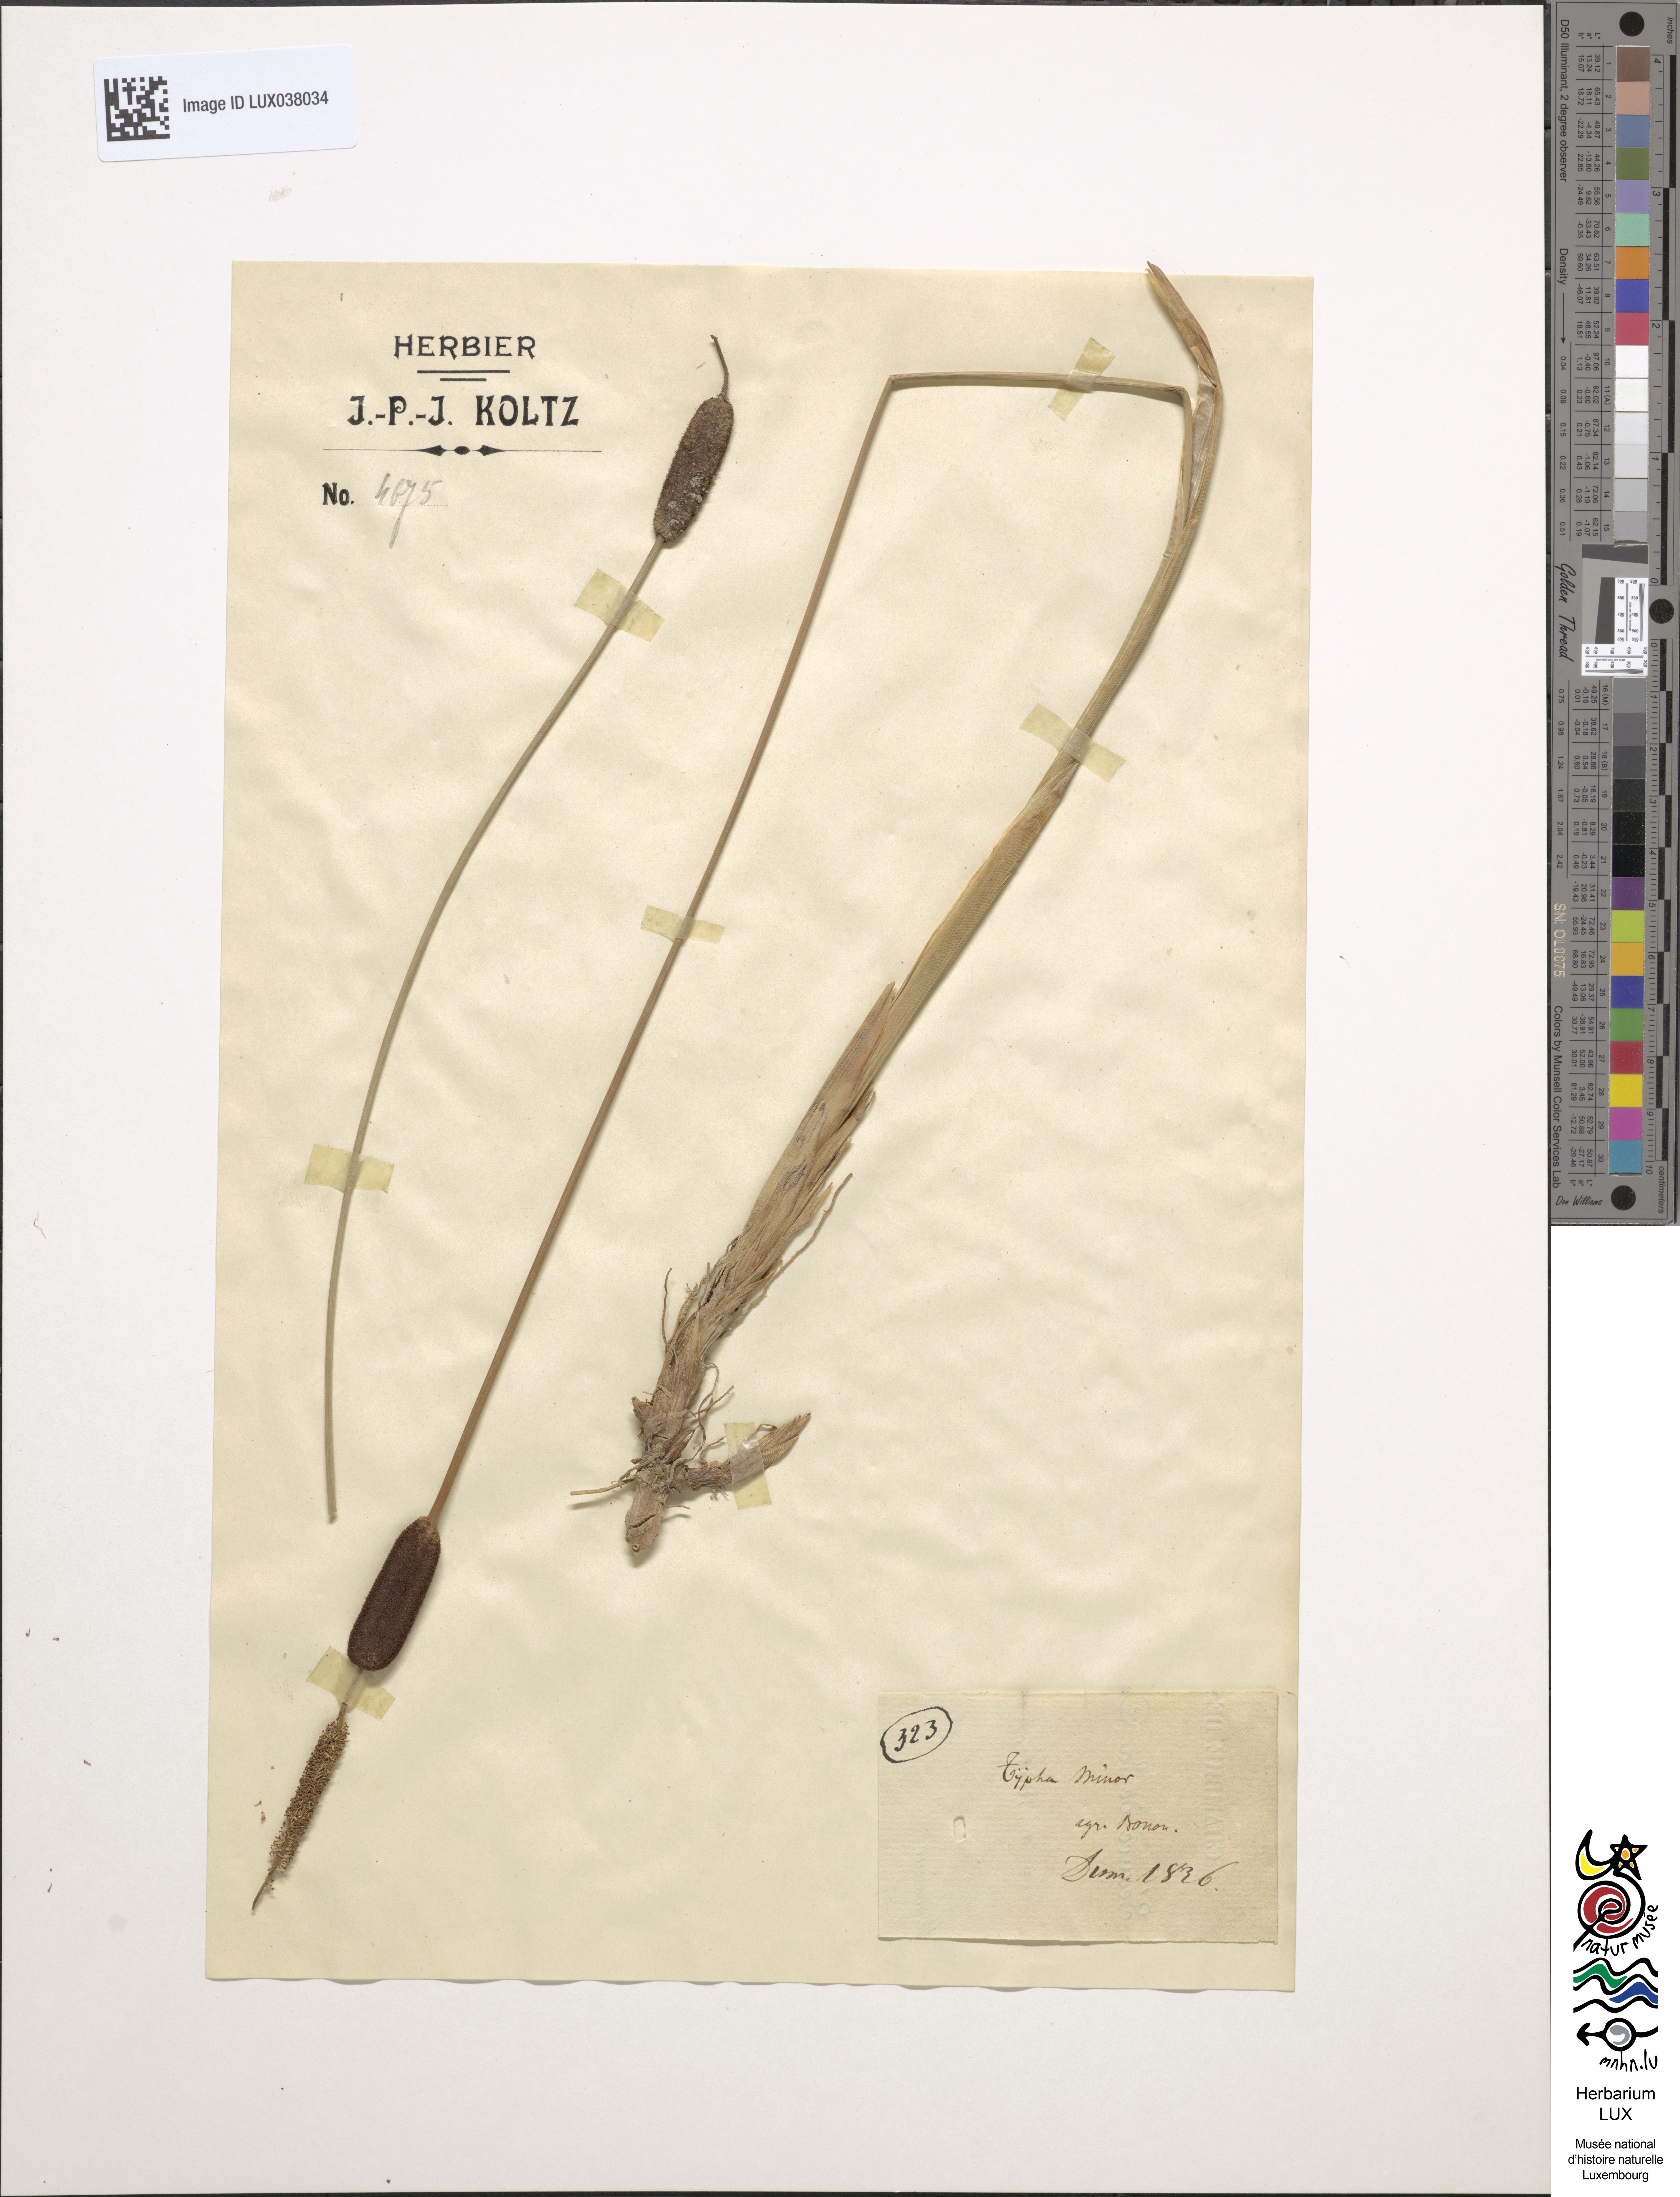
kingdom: Plantae
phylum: Tracheophyta
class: Liliopsida
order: Poales
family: Typhaceae
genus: Typha
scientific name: Typha
